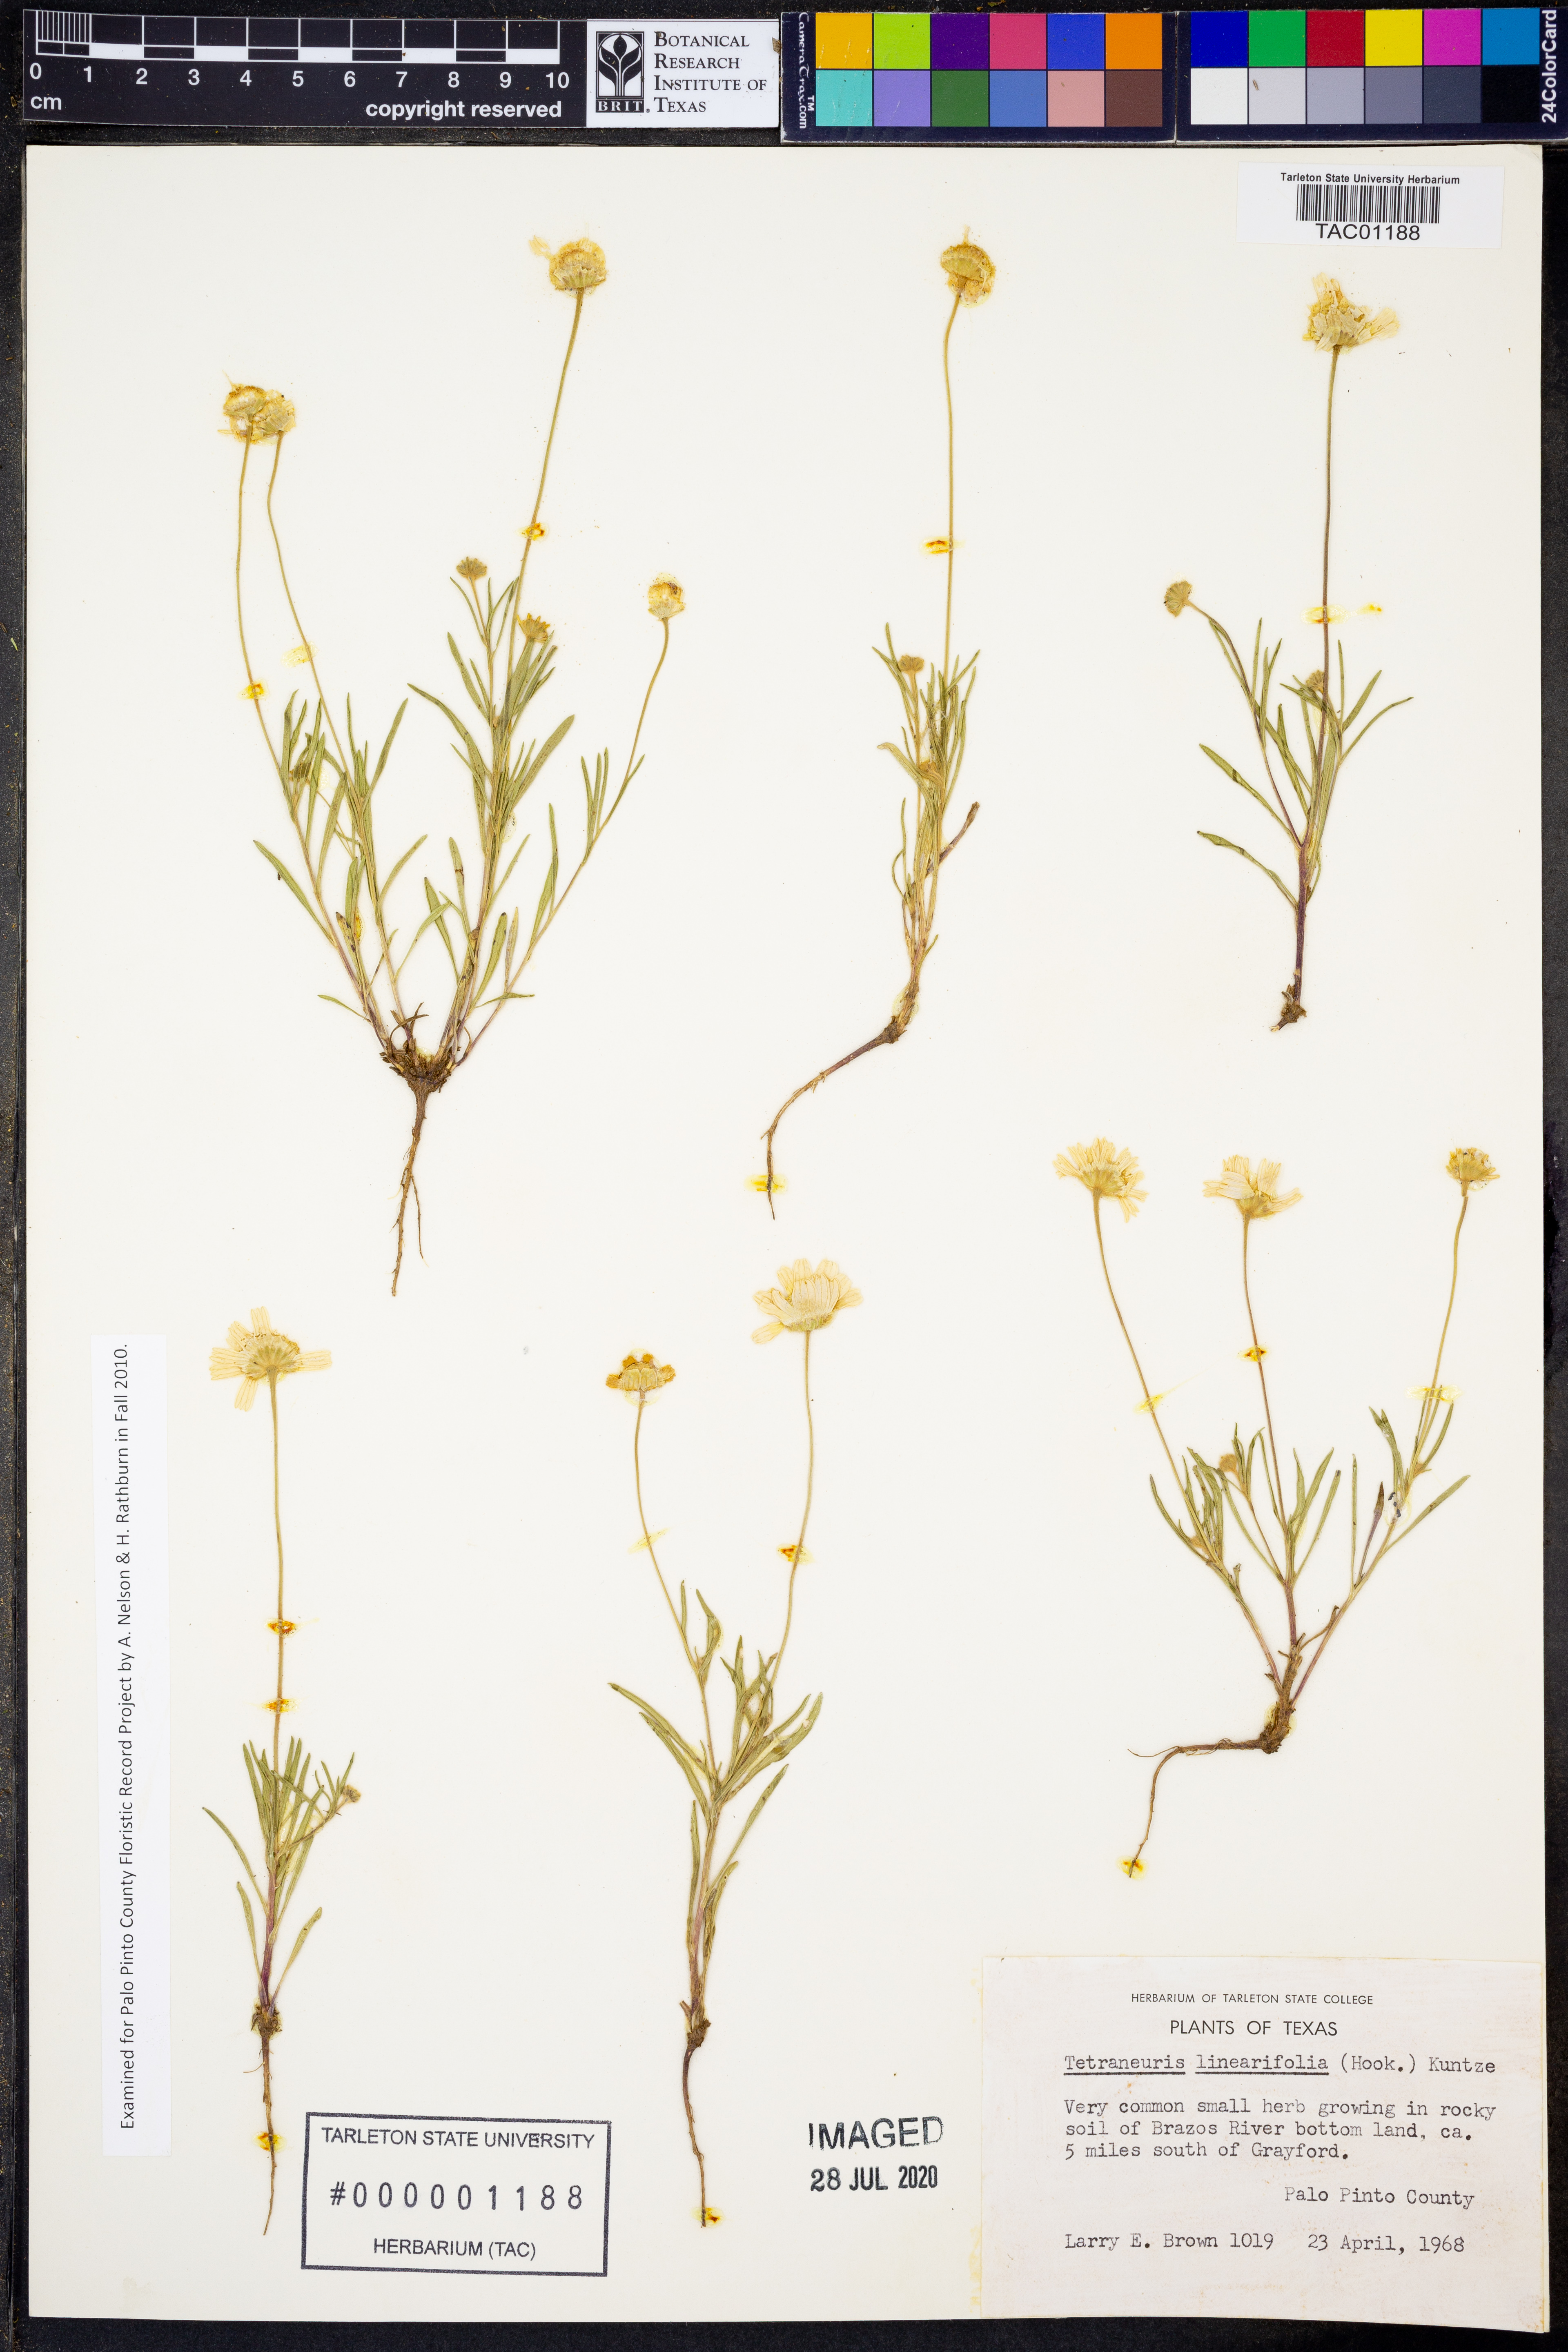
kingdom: Plantae
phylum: Tracheophyta
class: Magnoliopsida
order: Asterales
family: Asteraceae
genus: Tetraneuris
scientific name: Tetraneuris linearifolia
